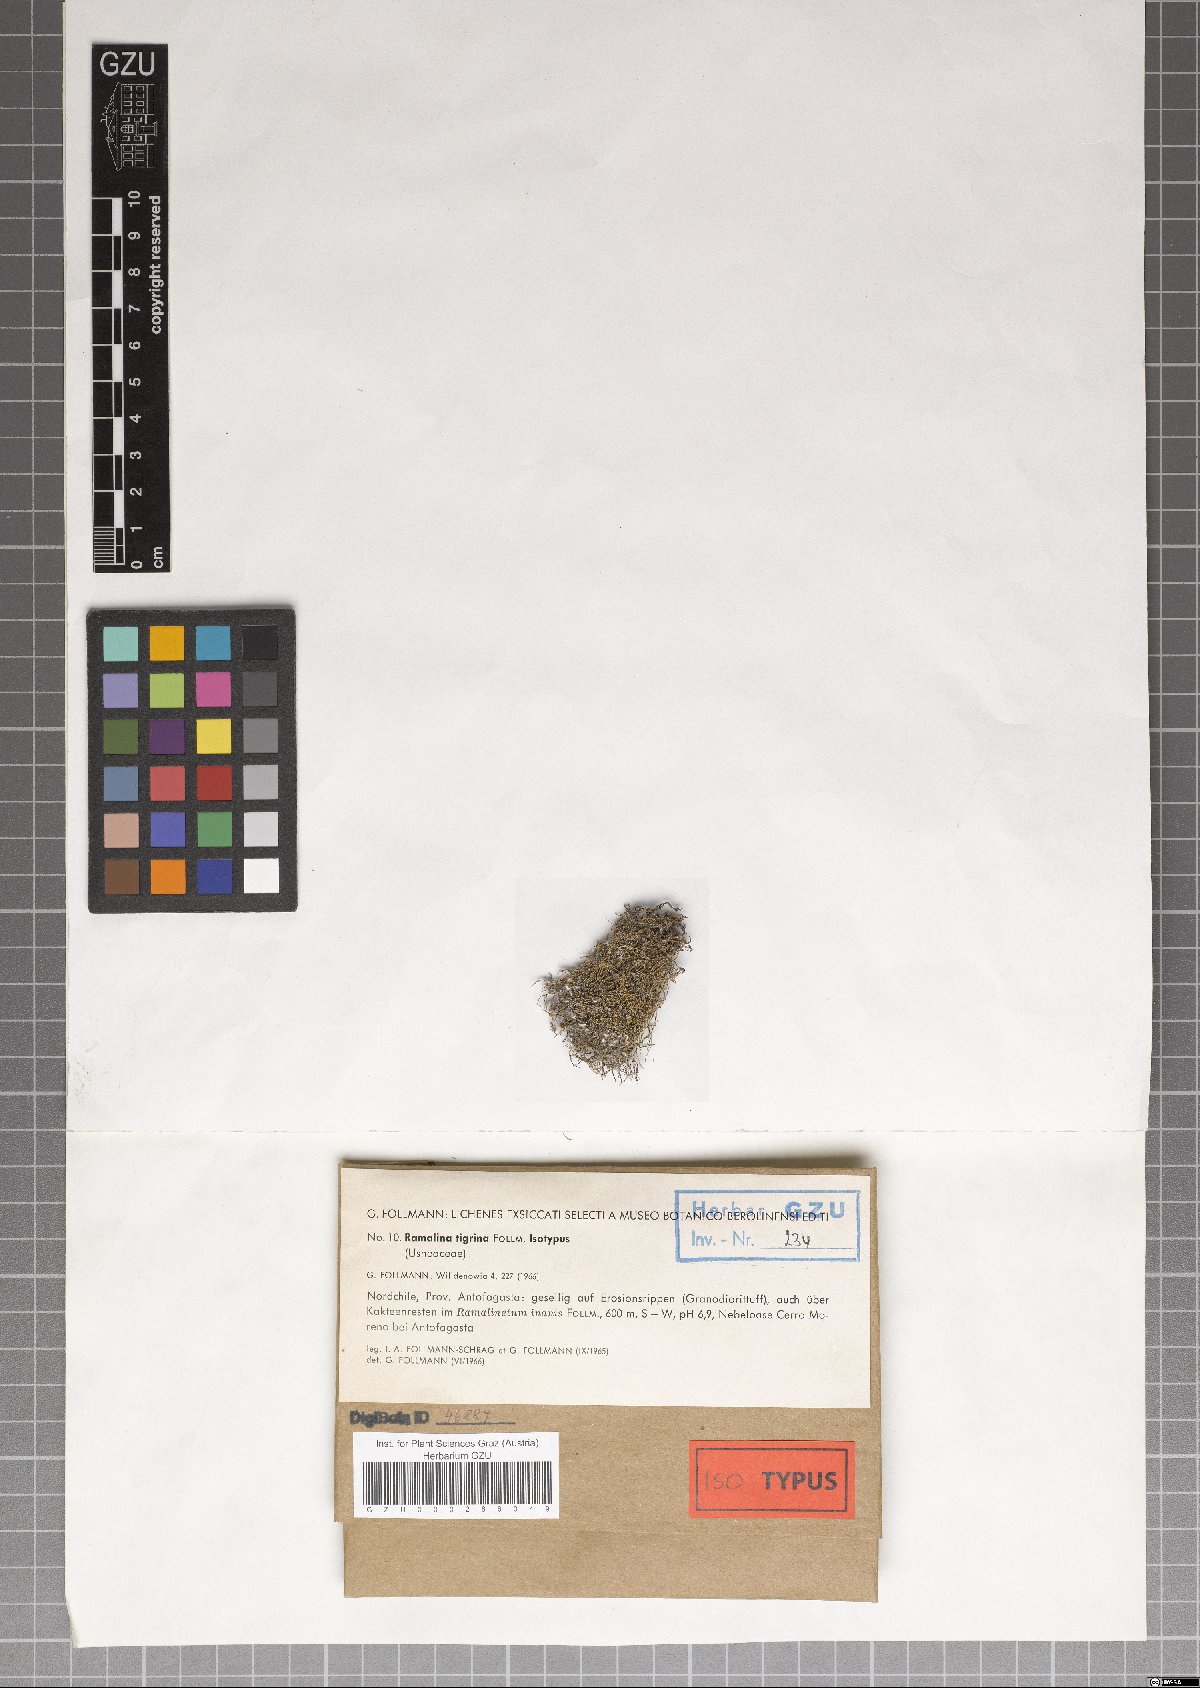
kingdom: Fungi
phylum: Ascomycota
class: Lecanoromycetes
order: Lecanorales
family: Ramalinaceae
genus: Niebla
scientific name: Niebla tigrina
